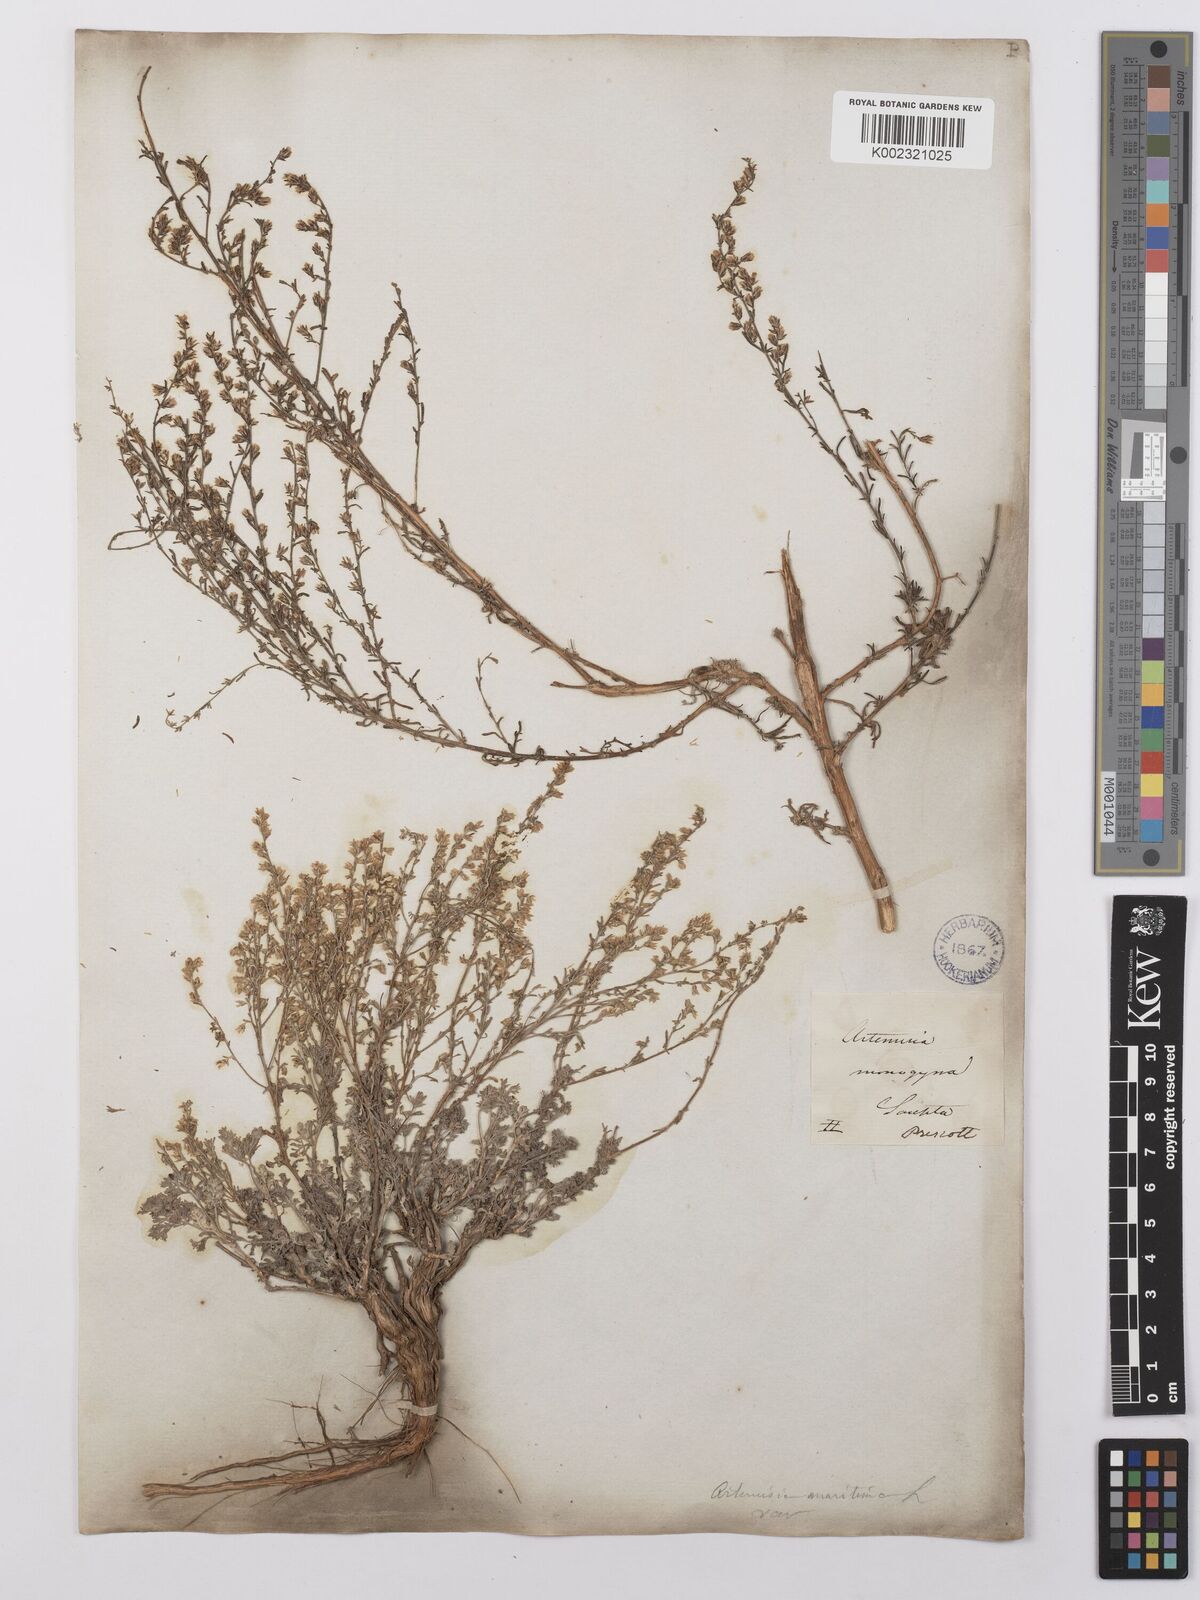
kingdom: Plantae
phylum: Tracheophyta
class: Magnoliopsida
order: Asterales
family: Asteraceae
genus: Artemisia
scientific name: Artemisia santonicum
